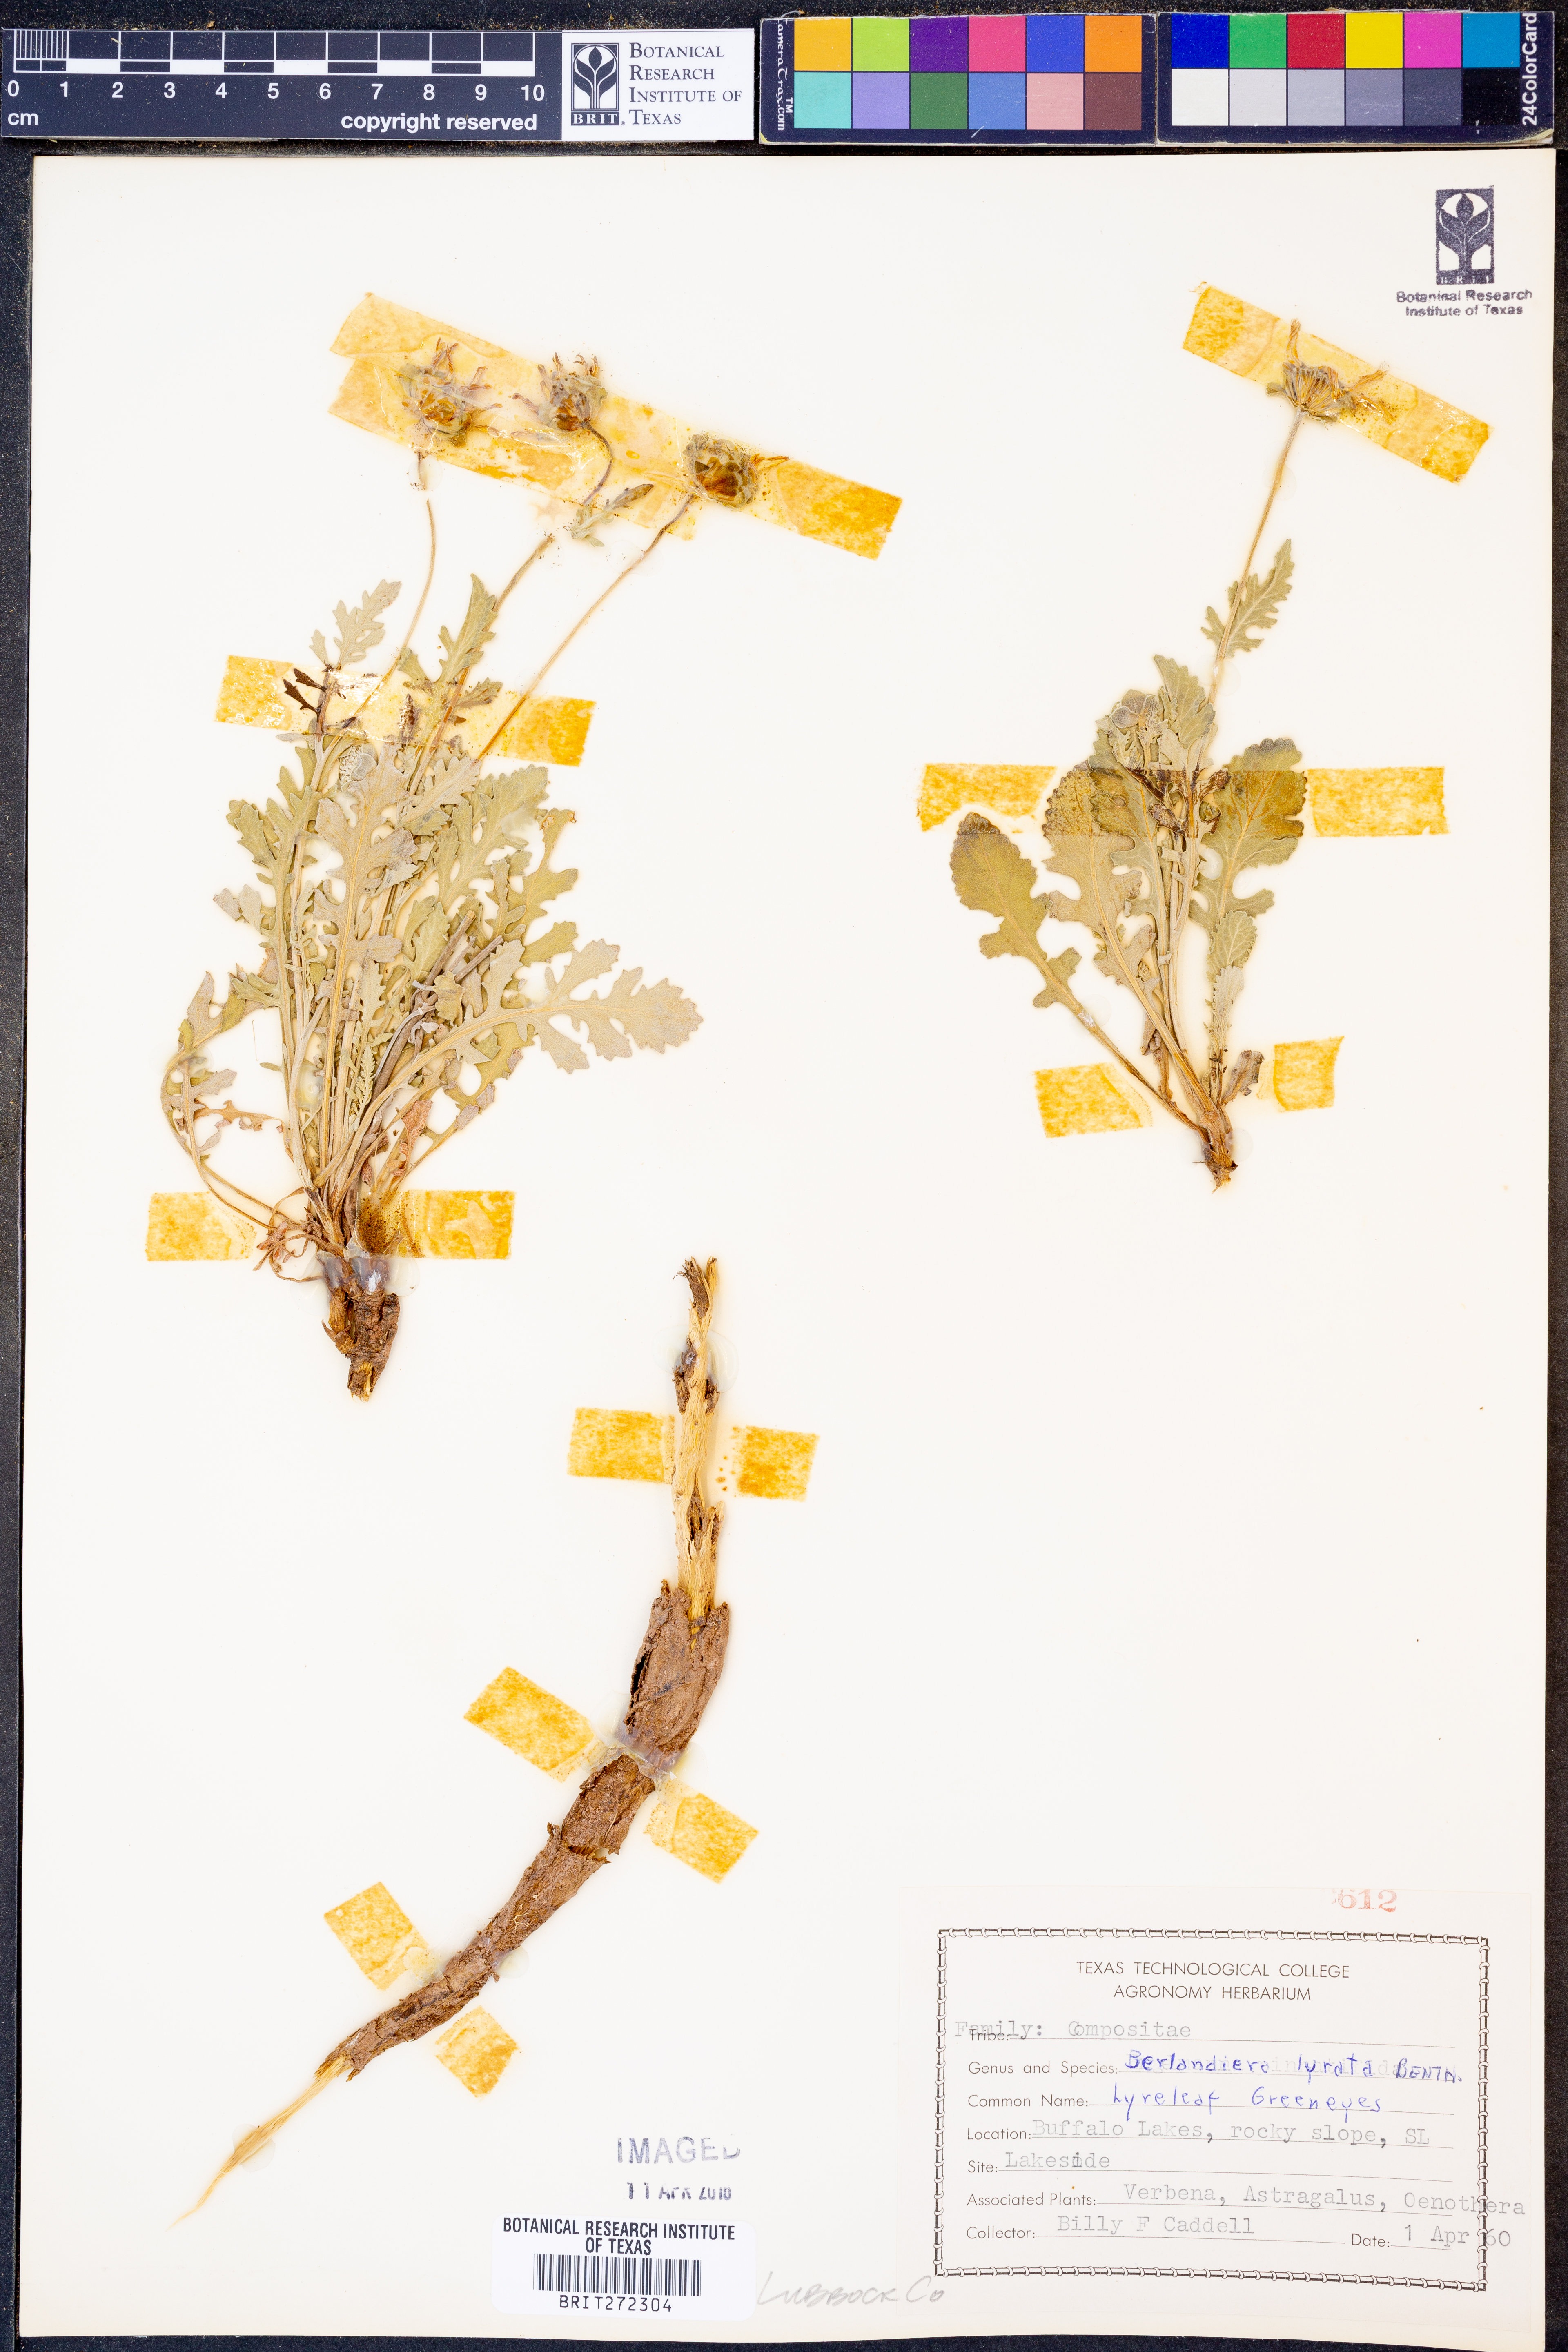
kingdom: Plantae
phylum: Tracheophyta
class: Magnoliopsida
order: Asterales
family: Asteraceae
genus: Berlandiera
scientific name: Berlandiera lyrata
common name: Chocolate-flower
